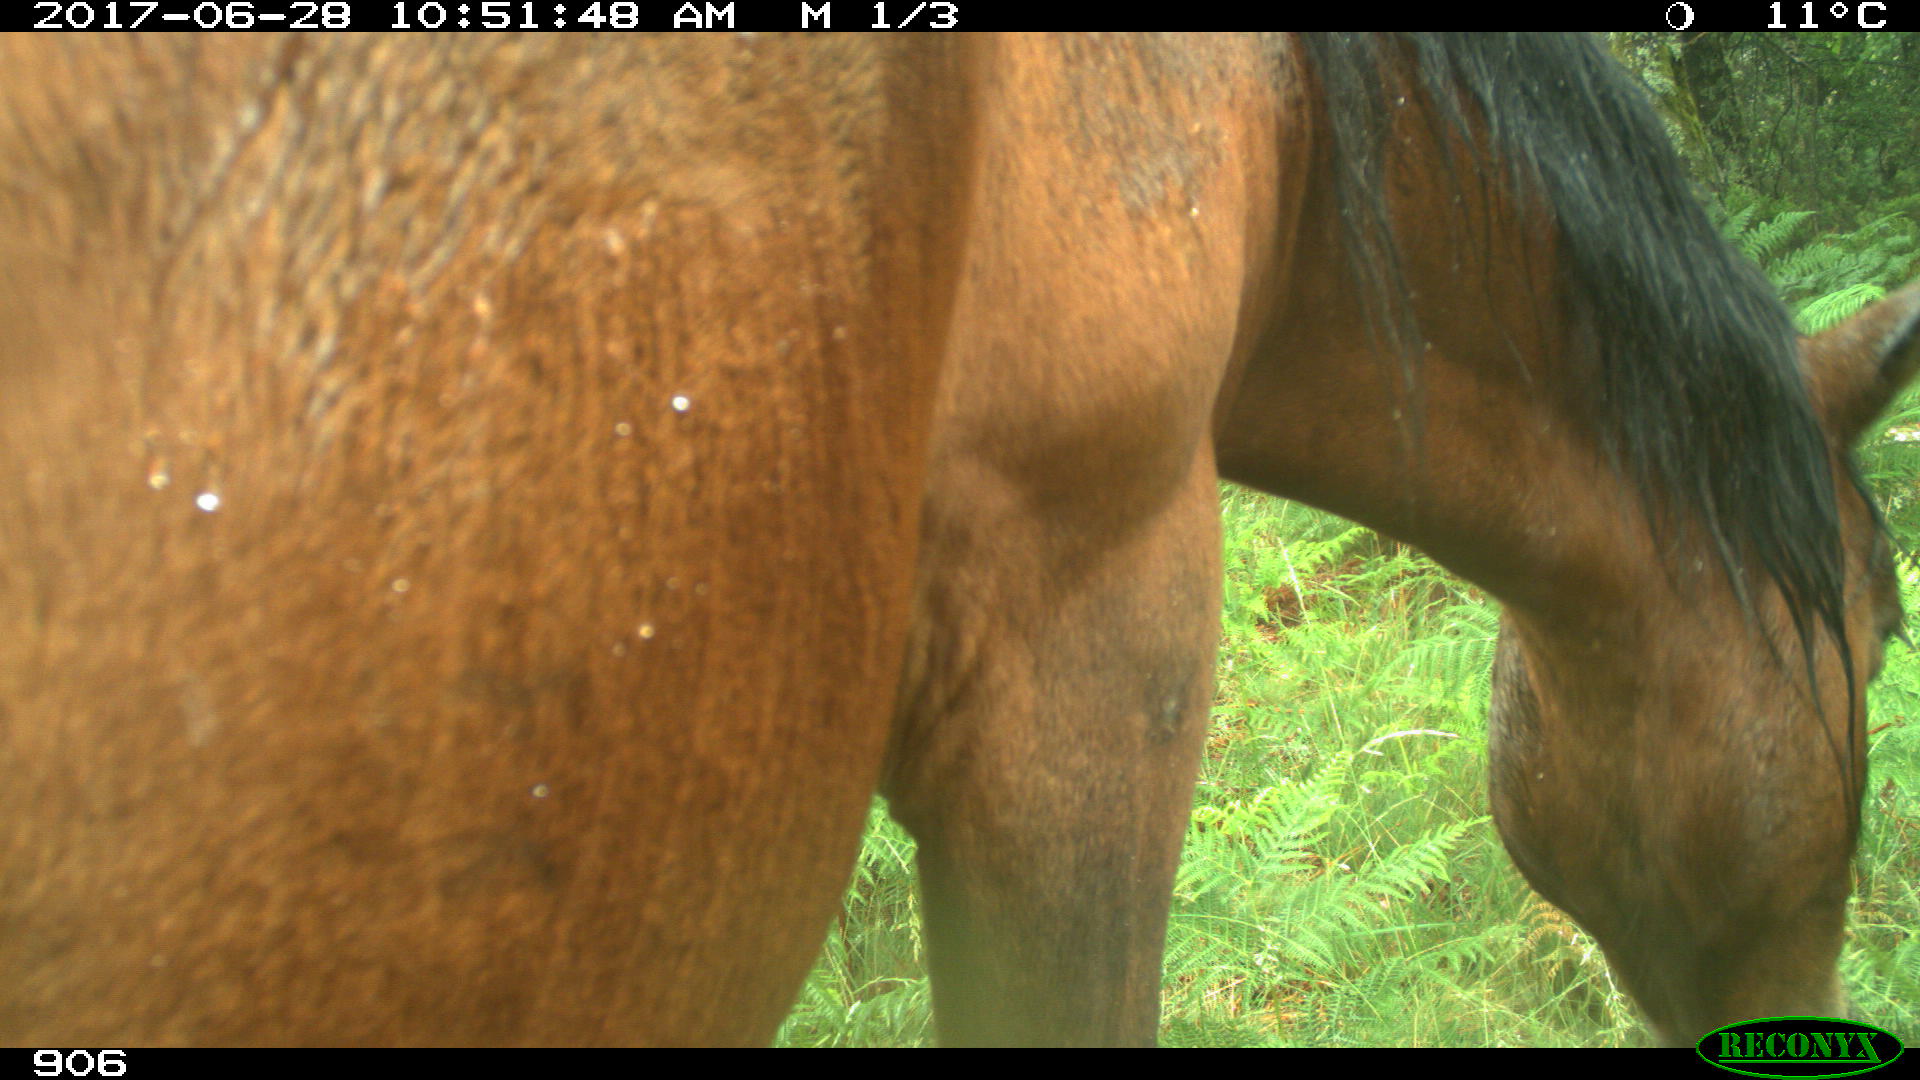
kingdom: Animalia
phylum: Chordata
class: Mammalia
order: Perissodactyla
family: Equidae
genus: Equus
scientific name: Equus caballus
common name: Horse
